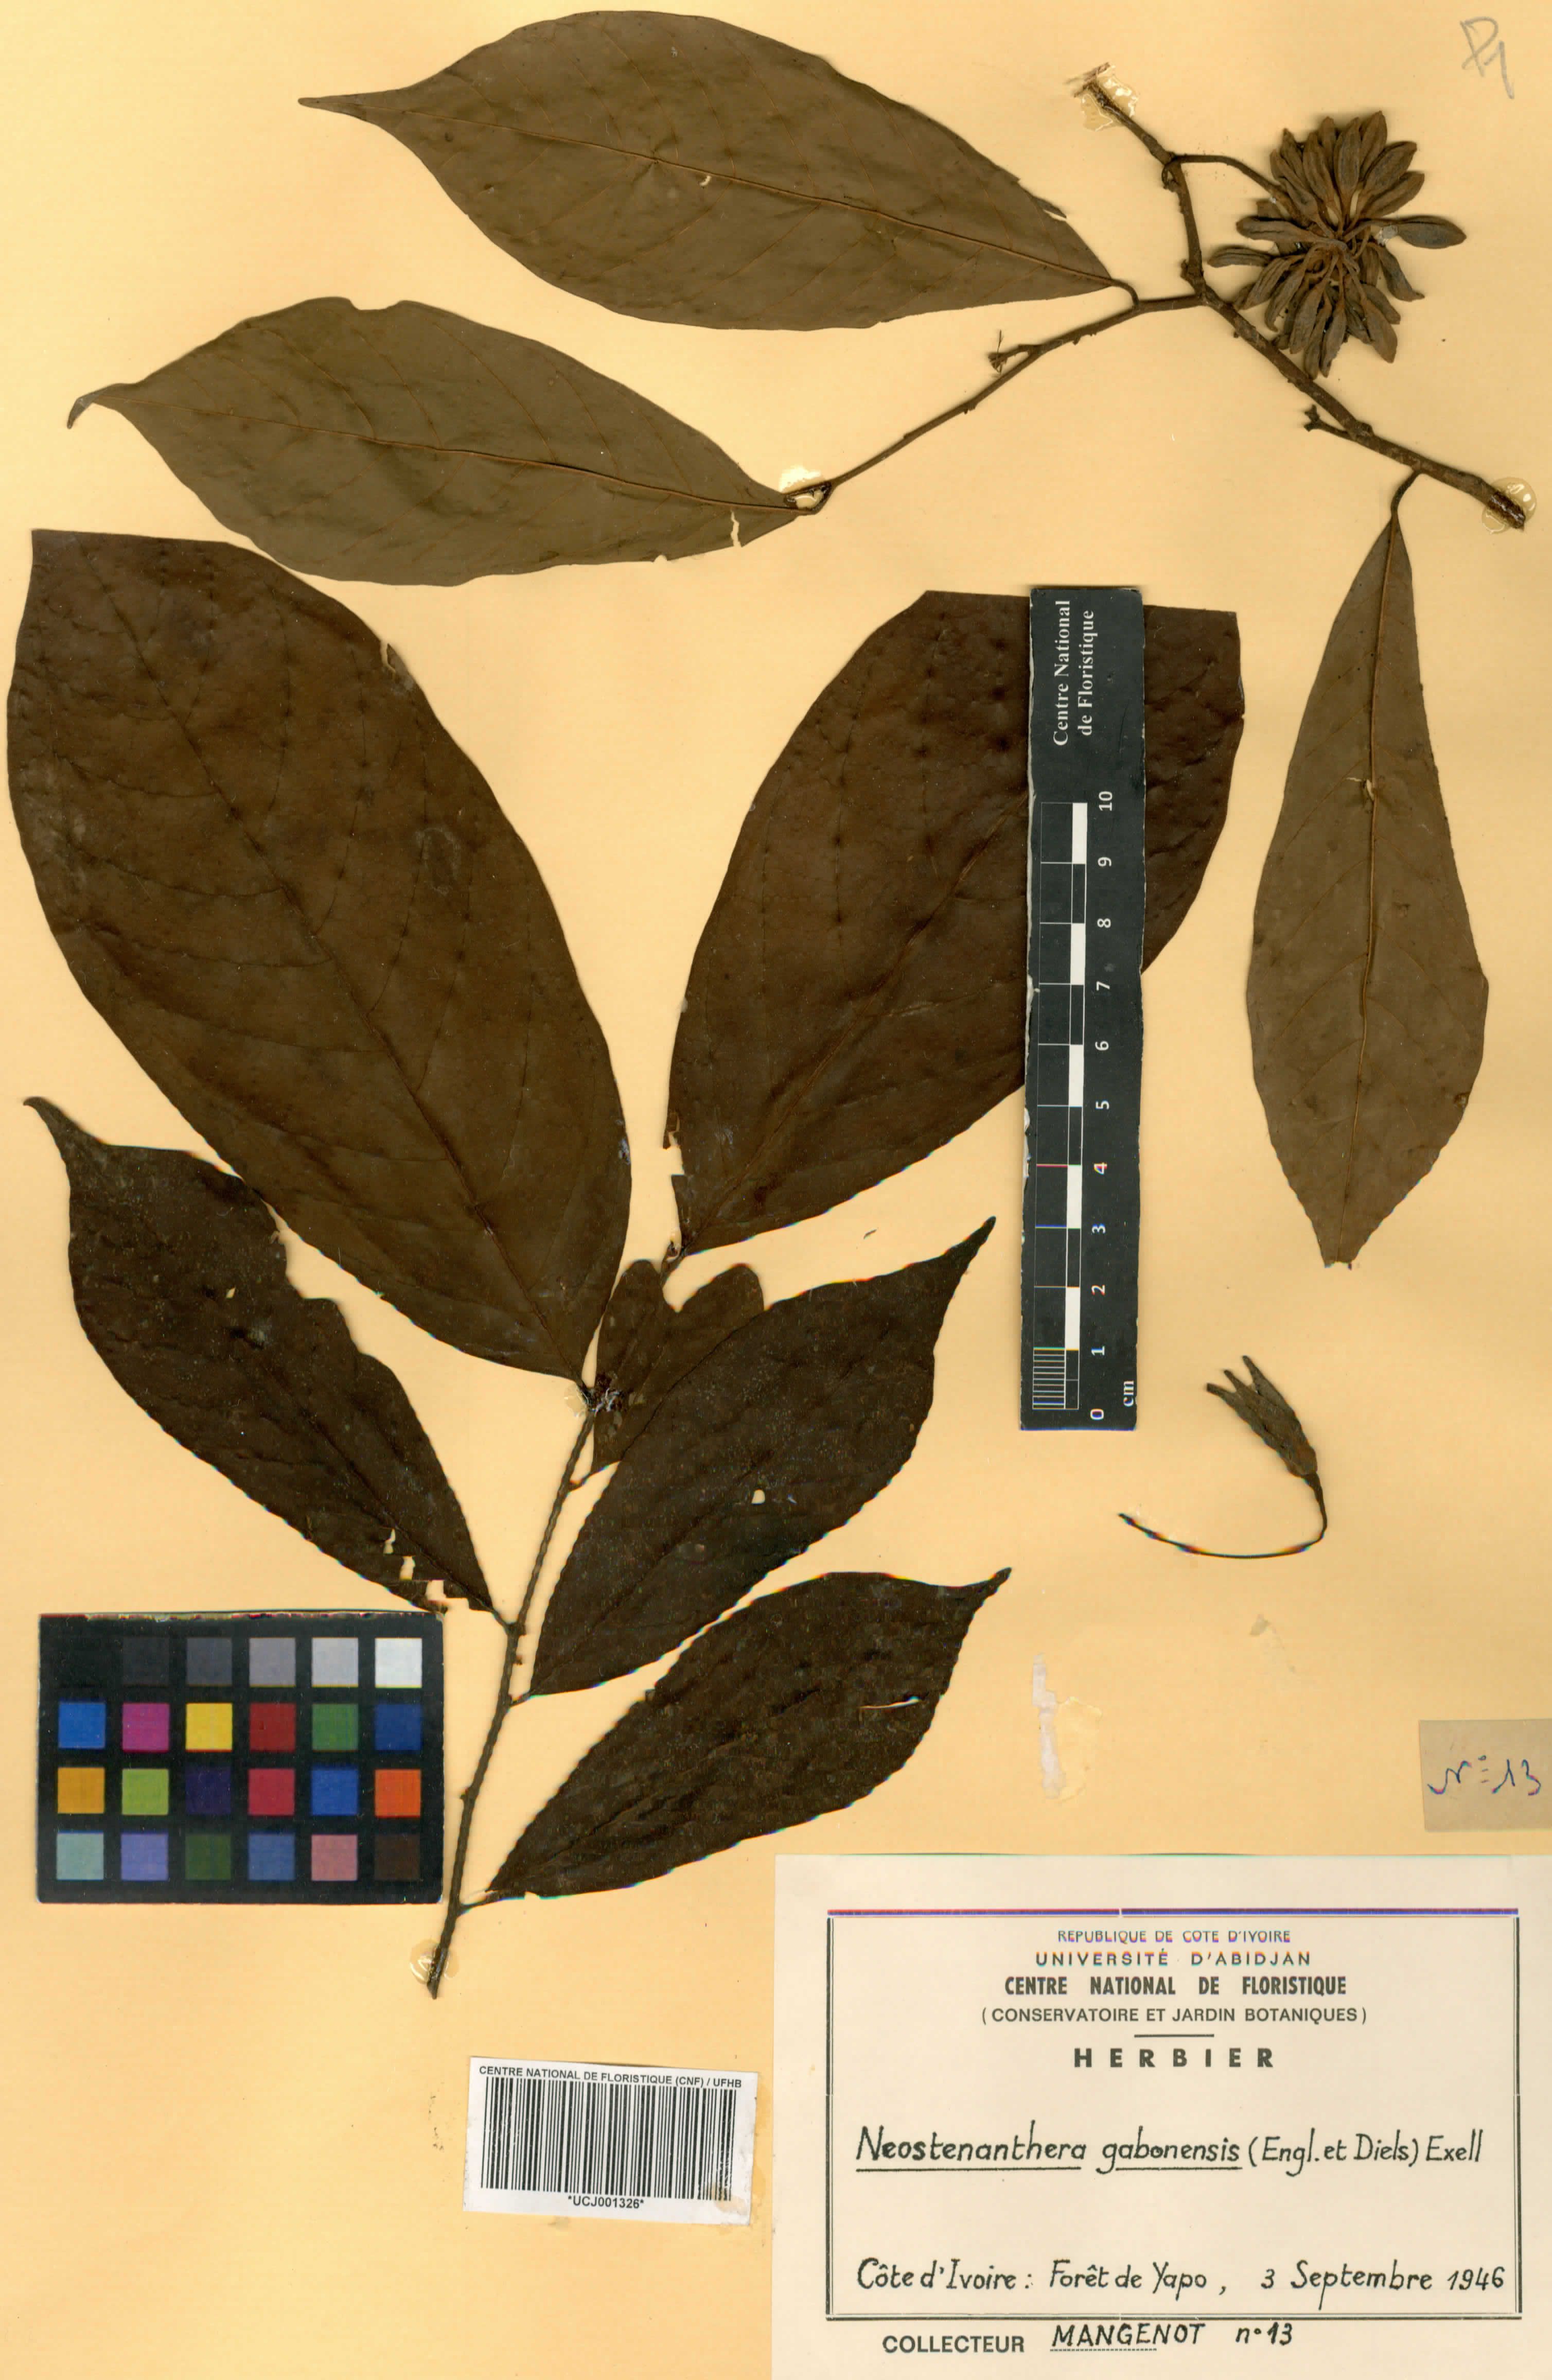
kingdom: Plantae
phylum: Tracheophyta
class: Magnoliopsida
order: Magnoliales
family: Annonaceae
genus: Neostenanthera
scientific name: Neostenanthera gabonensis
